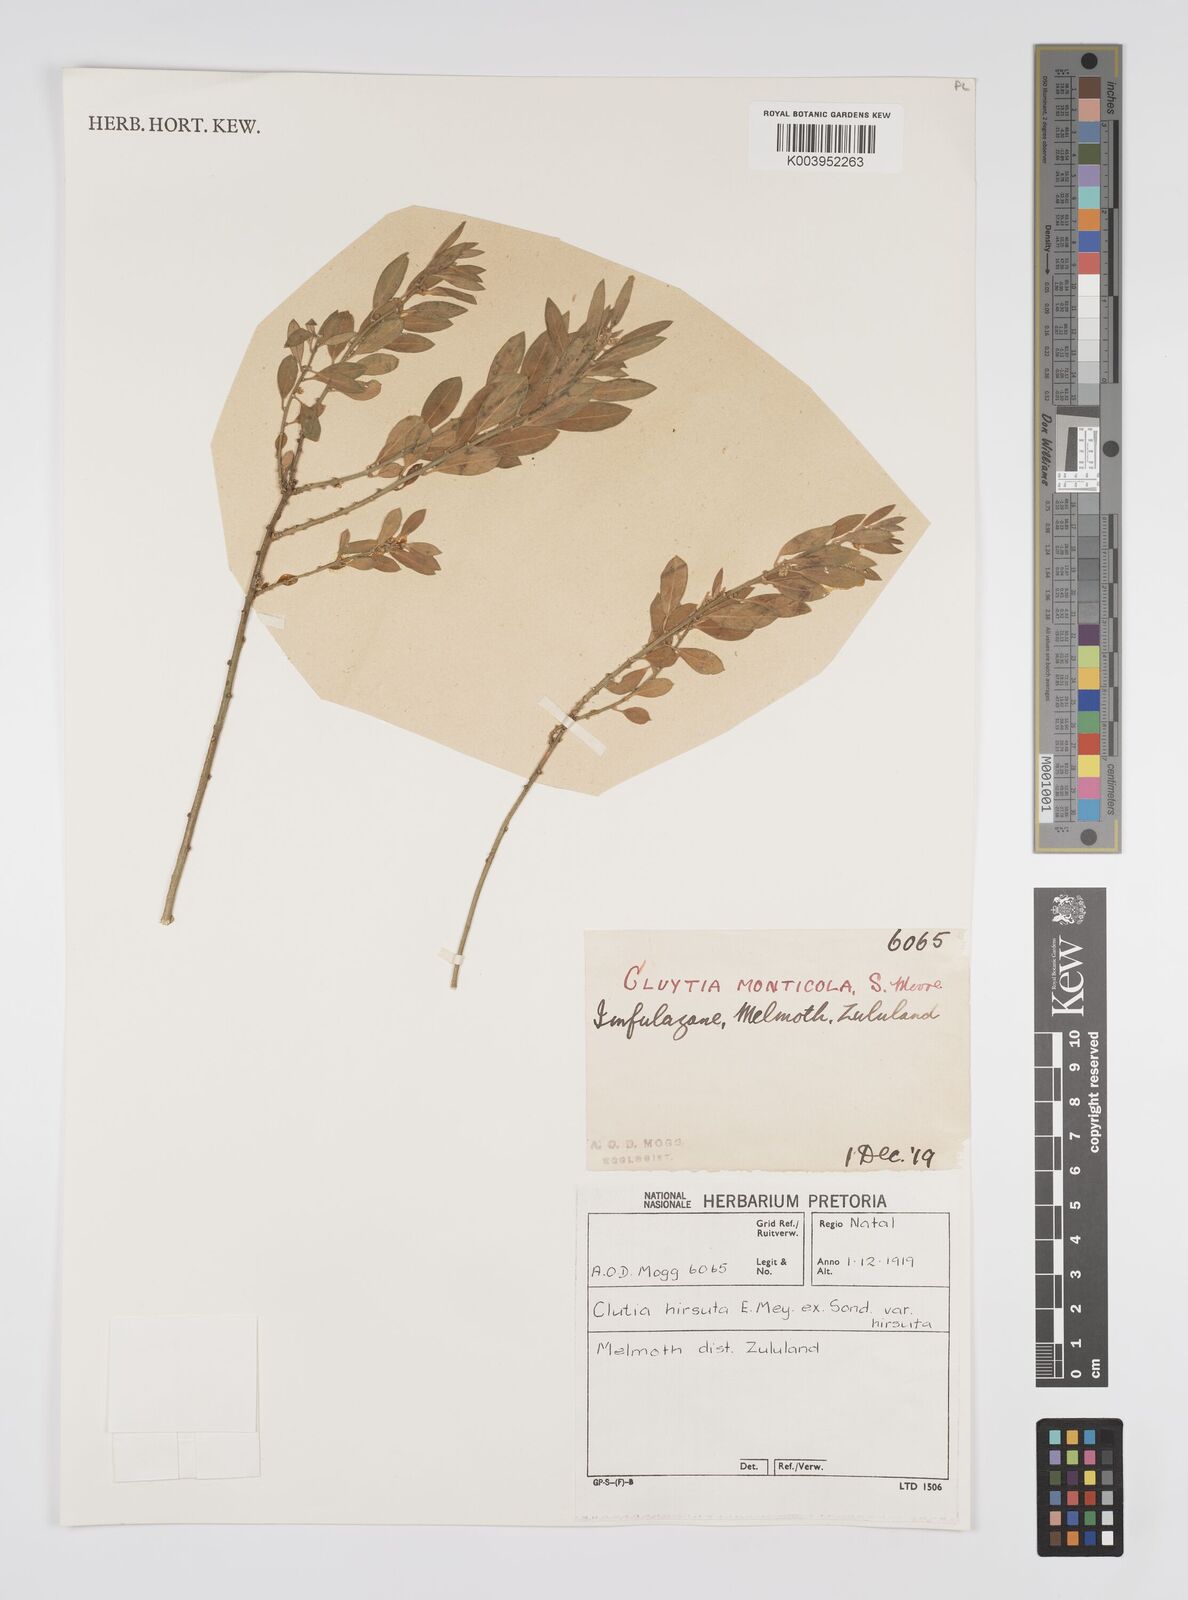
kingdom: Plantae
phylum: Tracheophyta
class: Magnoliopsida
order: Malpighiales
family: Peraceae
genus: Clutia
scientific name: Clutia affinis
